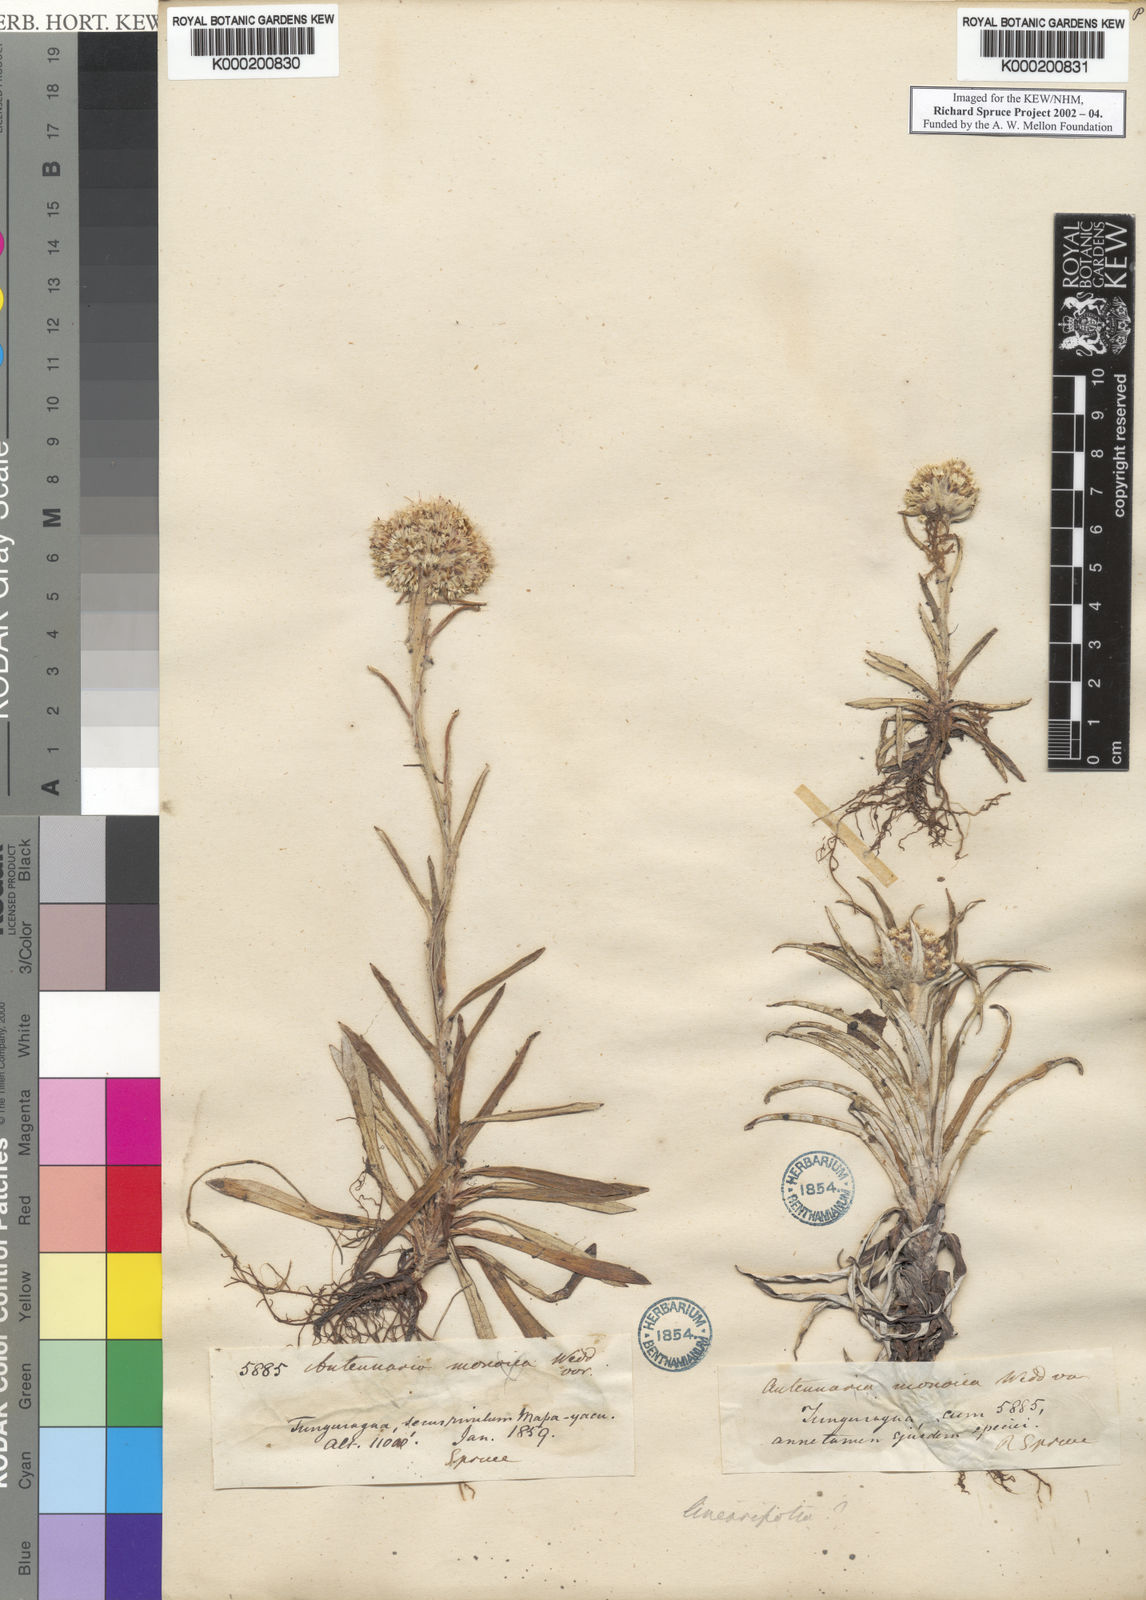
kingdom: Plantae
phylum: Tracheophyta
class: Magnoliopsida
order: Asterales
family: Asteraceae
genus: Berroa
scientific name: Berroa gnaphalioides
